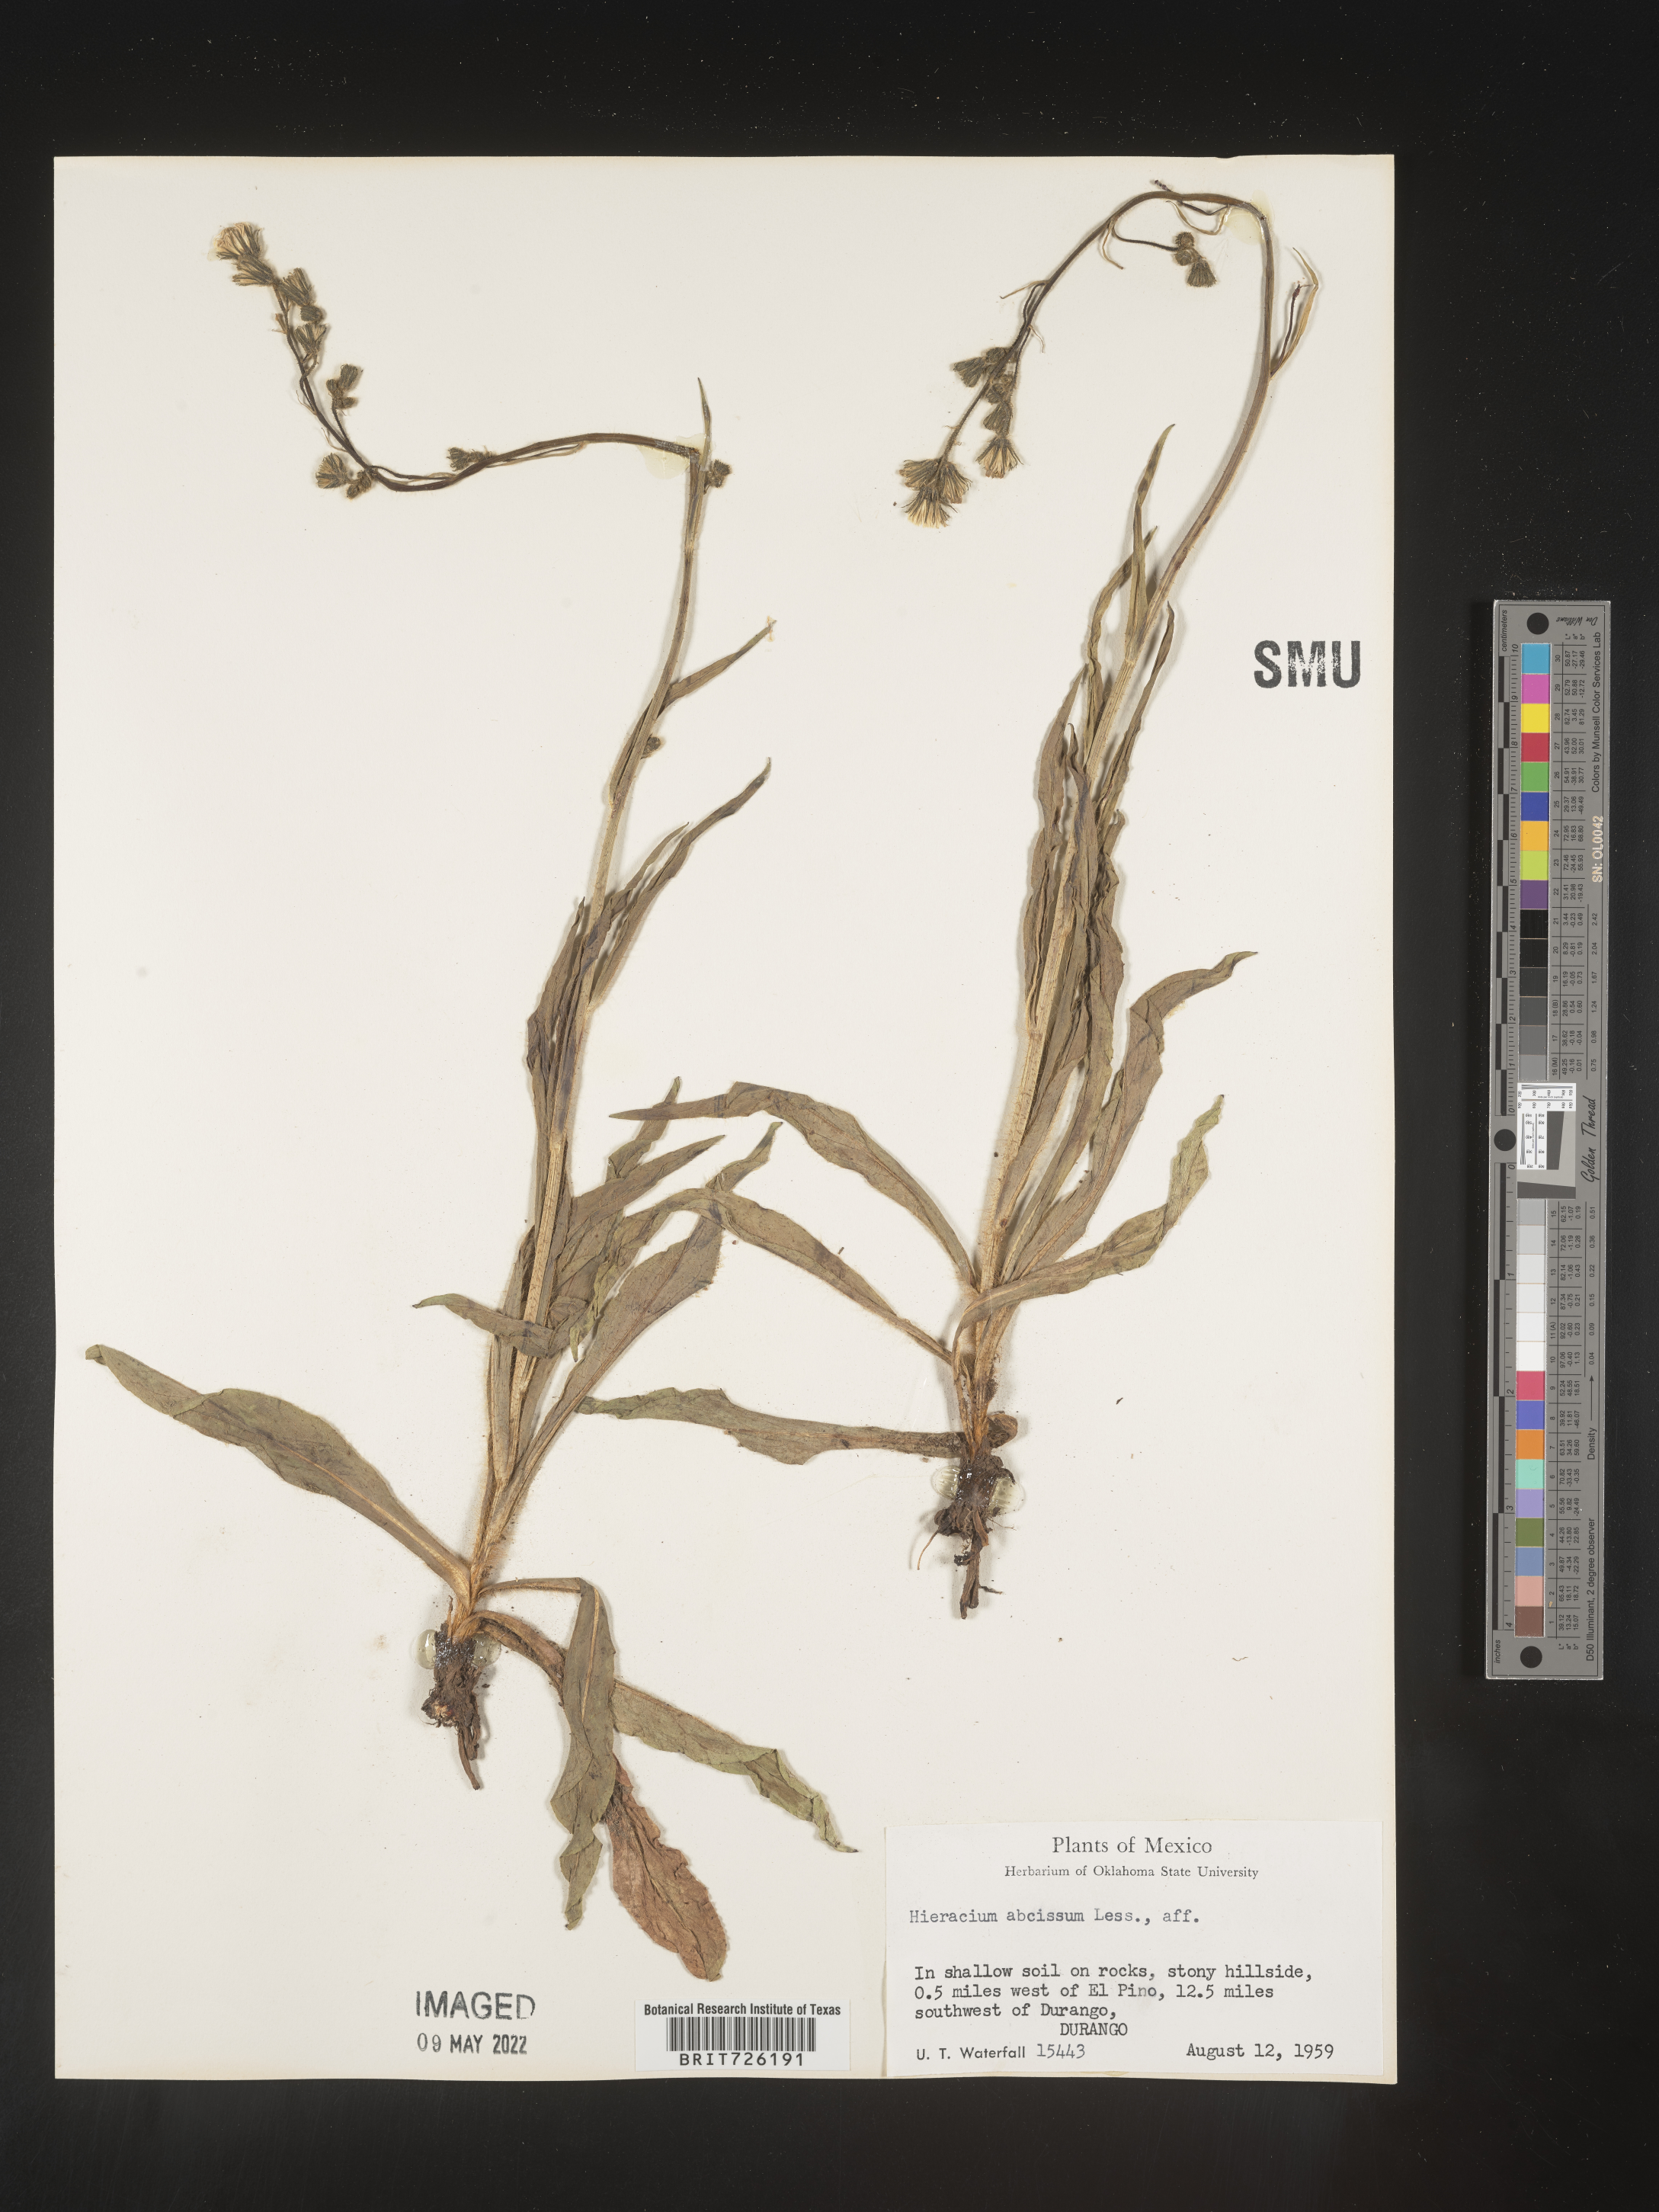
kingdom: Plantae
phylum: Tracheophyta
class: Magnoliopsida
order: Asterales
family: Asteraceae
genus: Hieracium
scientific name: Hieracium
